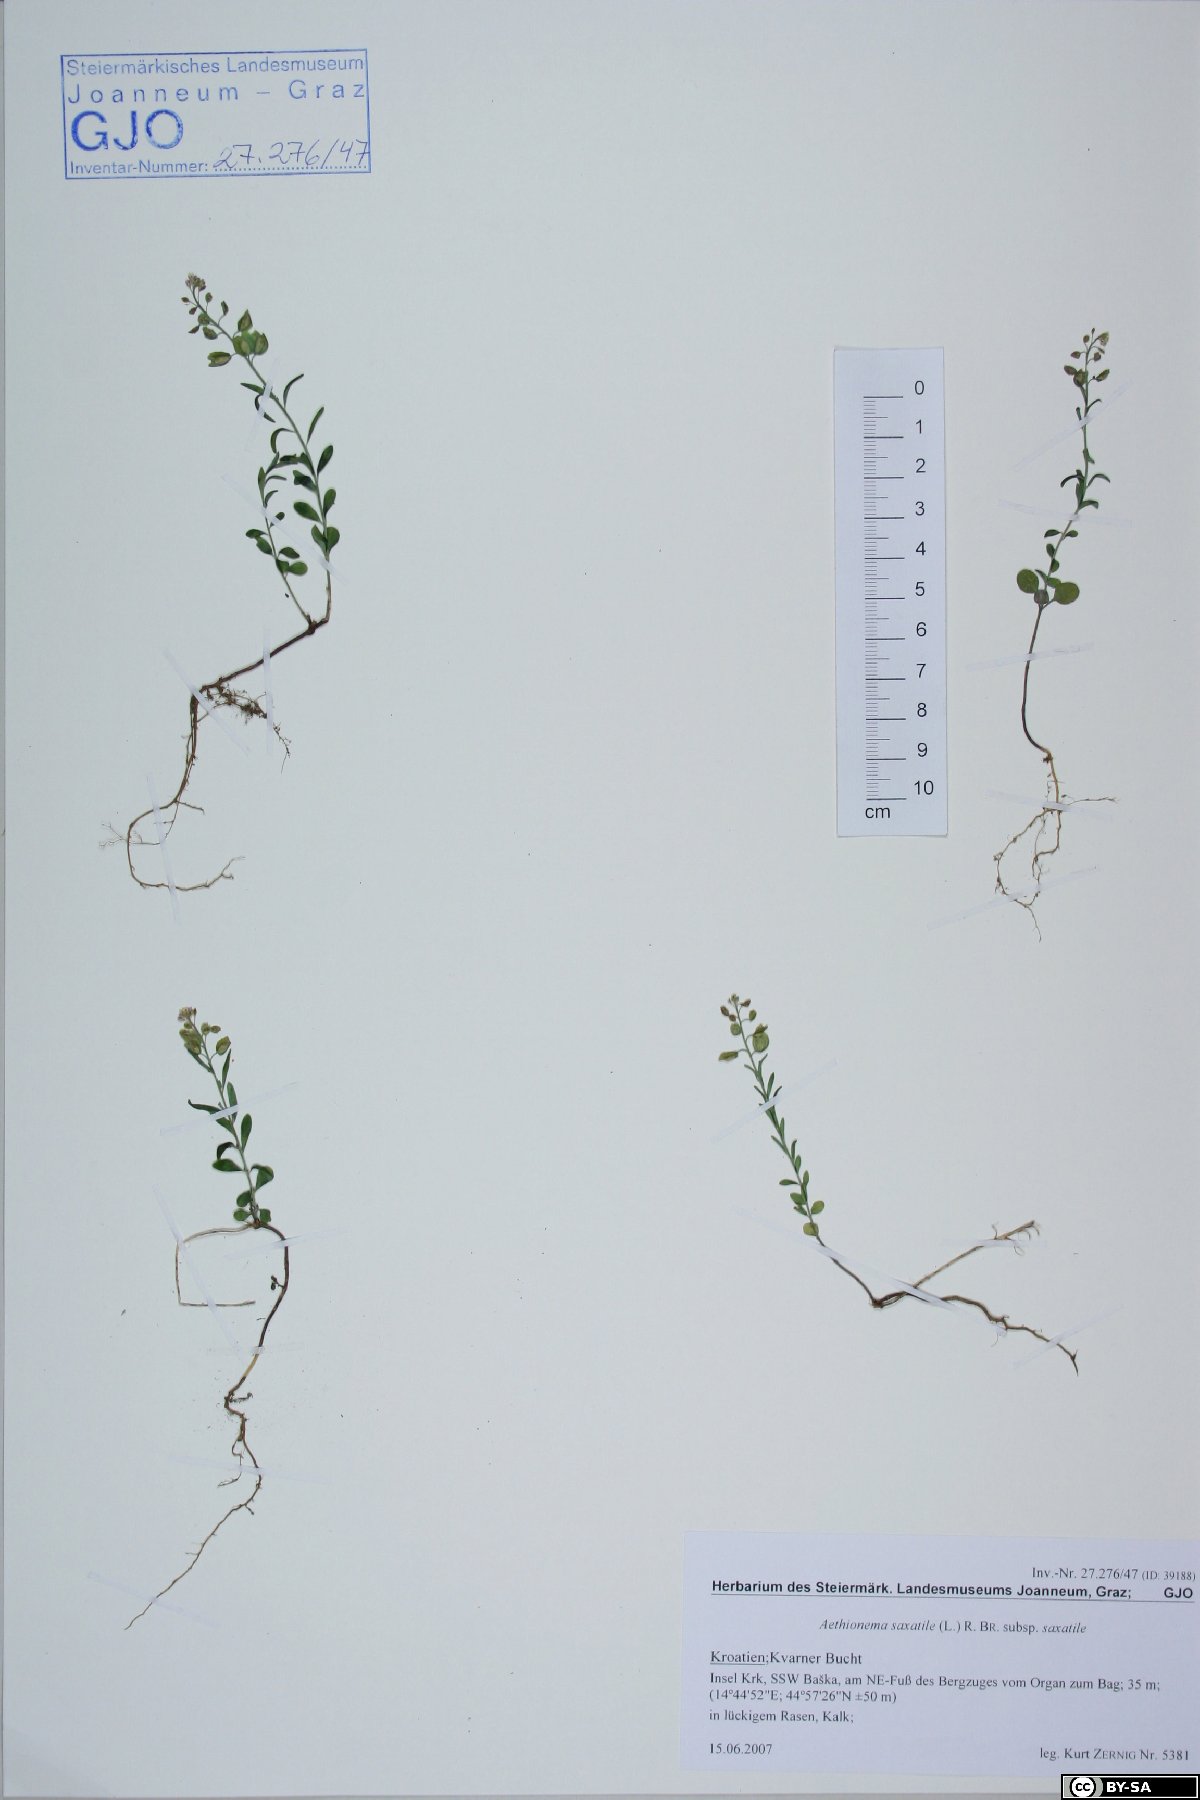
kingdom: Plantae
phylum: Tracheophyta
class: Magnoliopsida
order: Brassicales
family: Brassicaceae
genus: Aethionema
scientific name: Aethionema saxatile
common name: Burnt candytuft
